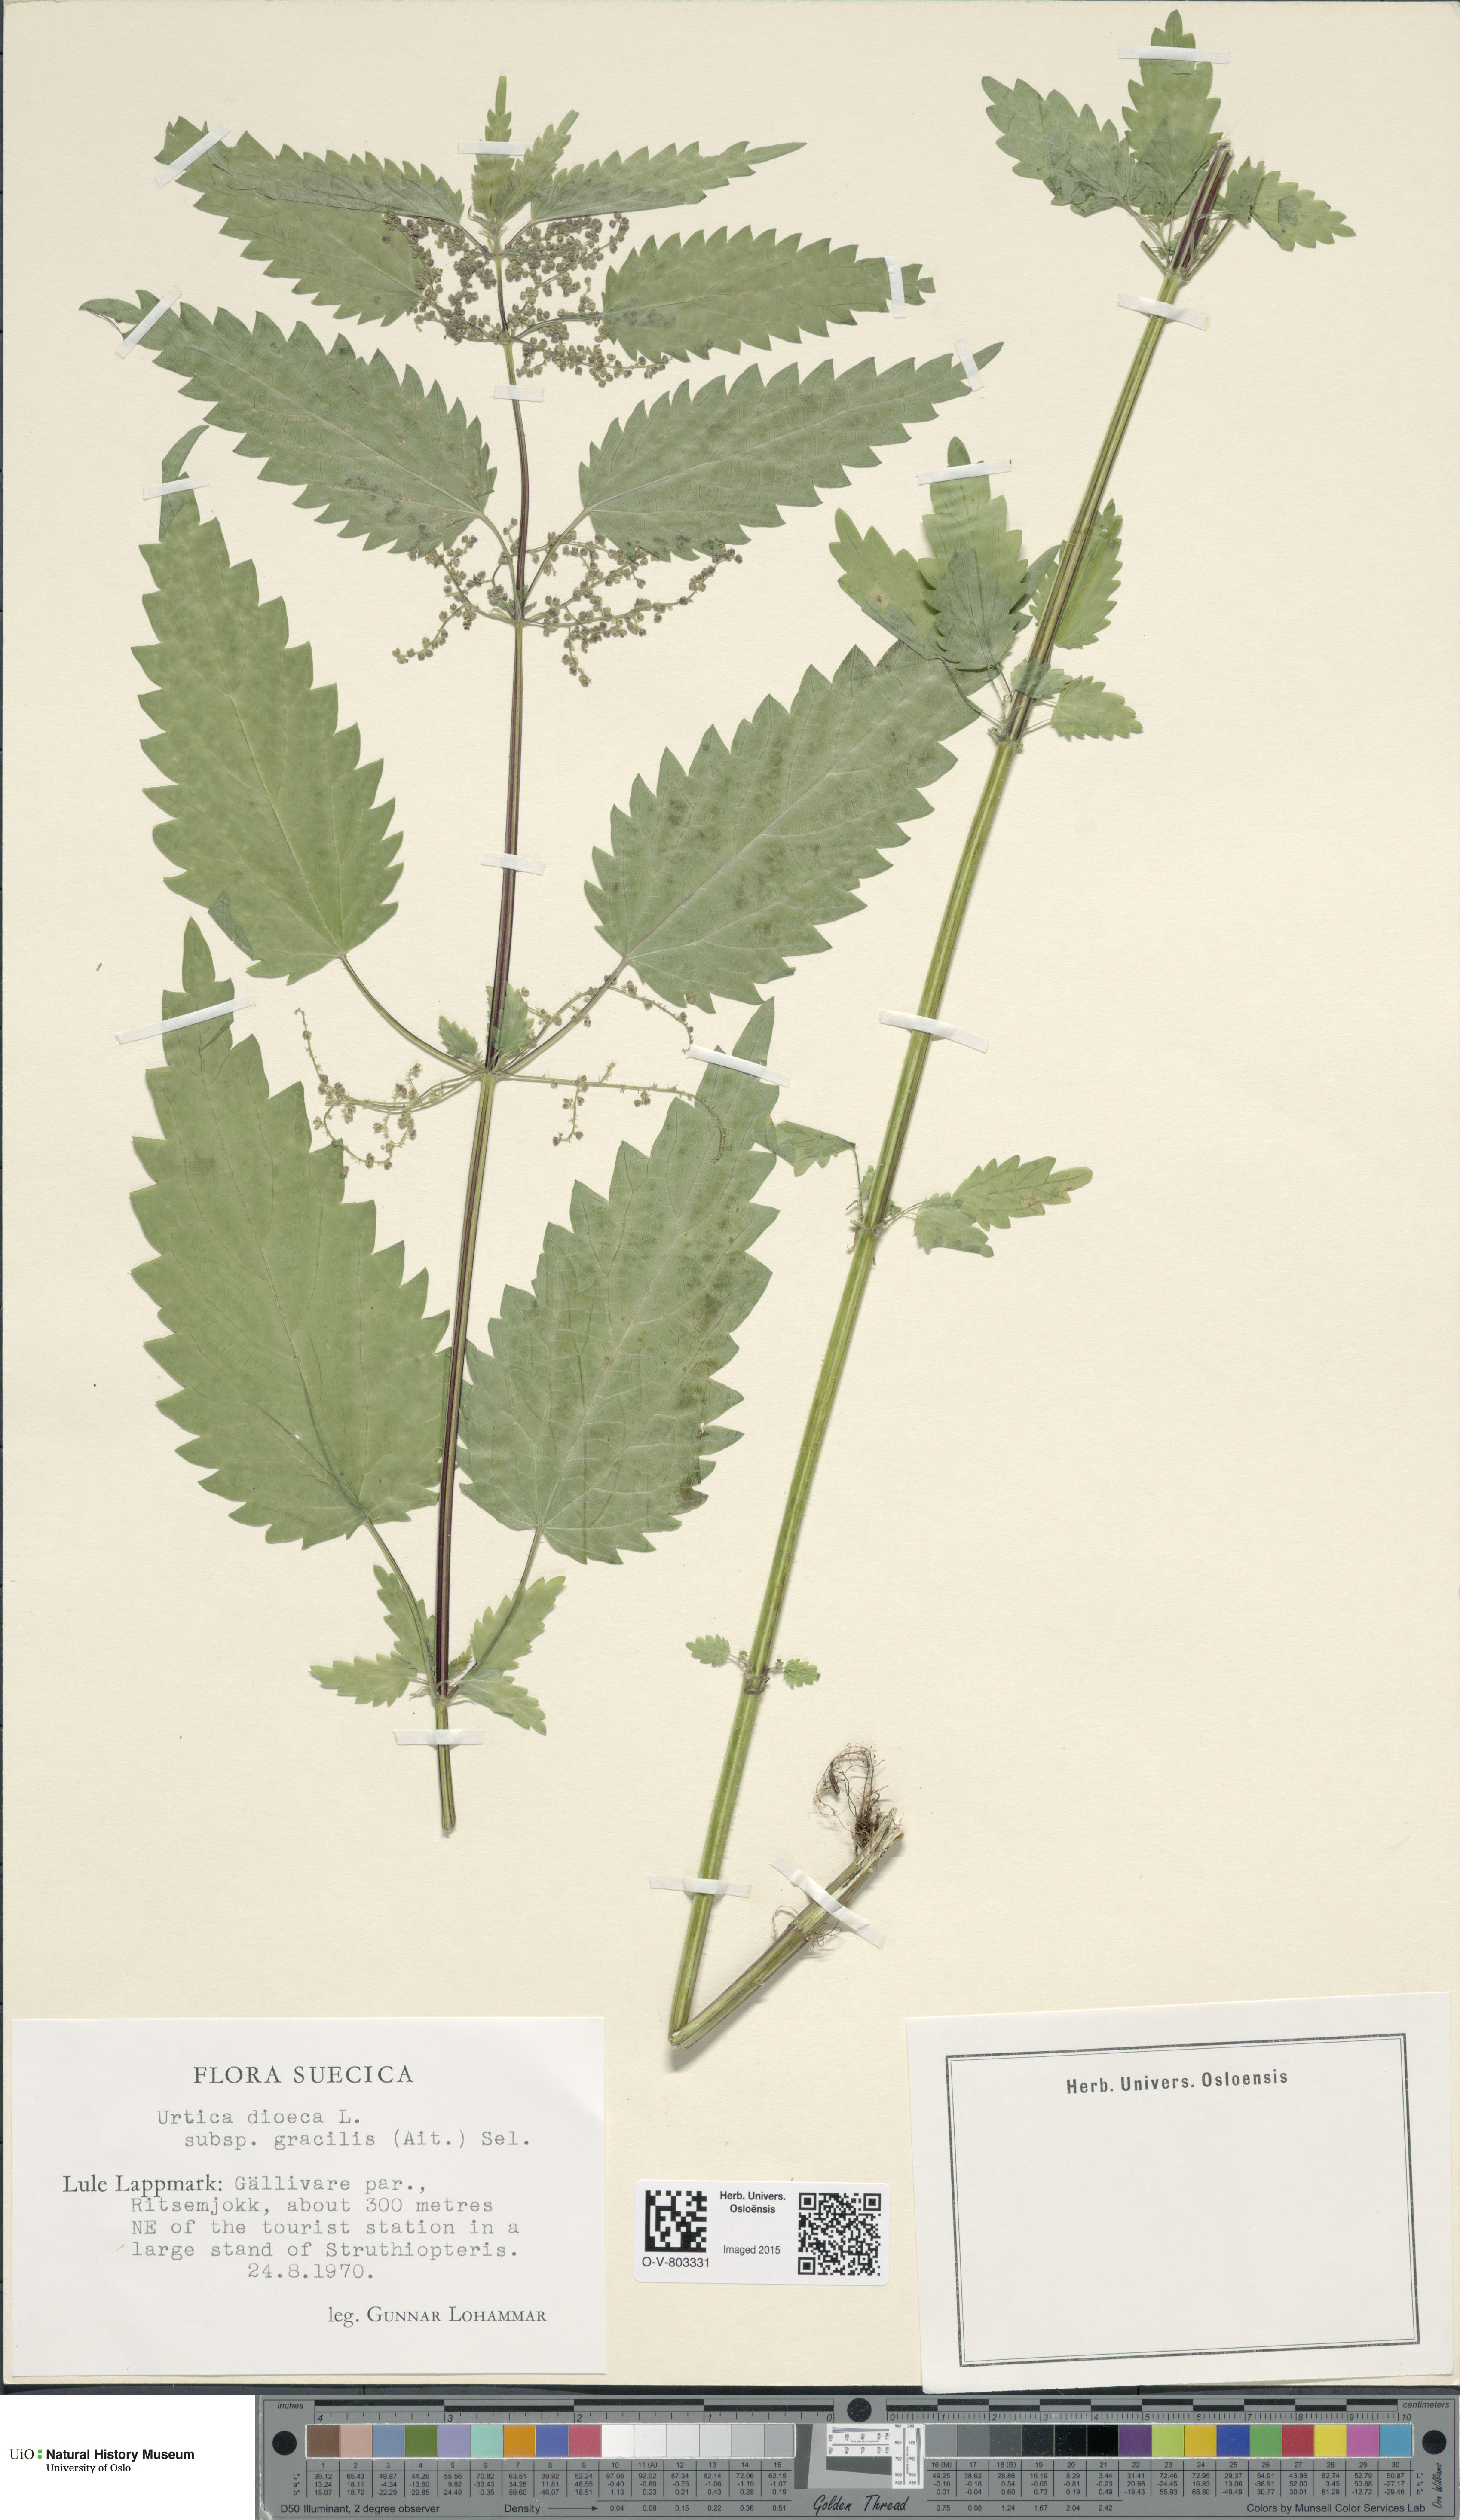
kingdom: Plantae
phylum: Tracheophyta
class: Magnoliopsida
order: Rosales
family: Urticaceae
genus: Urtica
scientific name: Urtica dioica
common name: Common nettle
